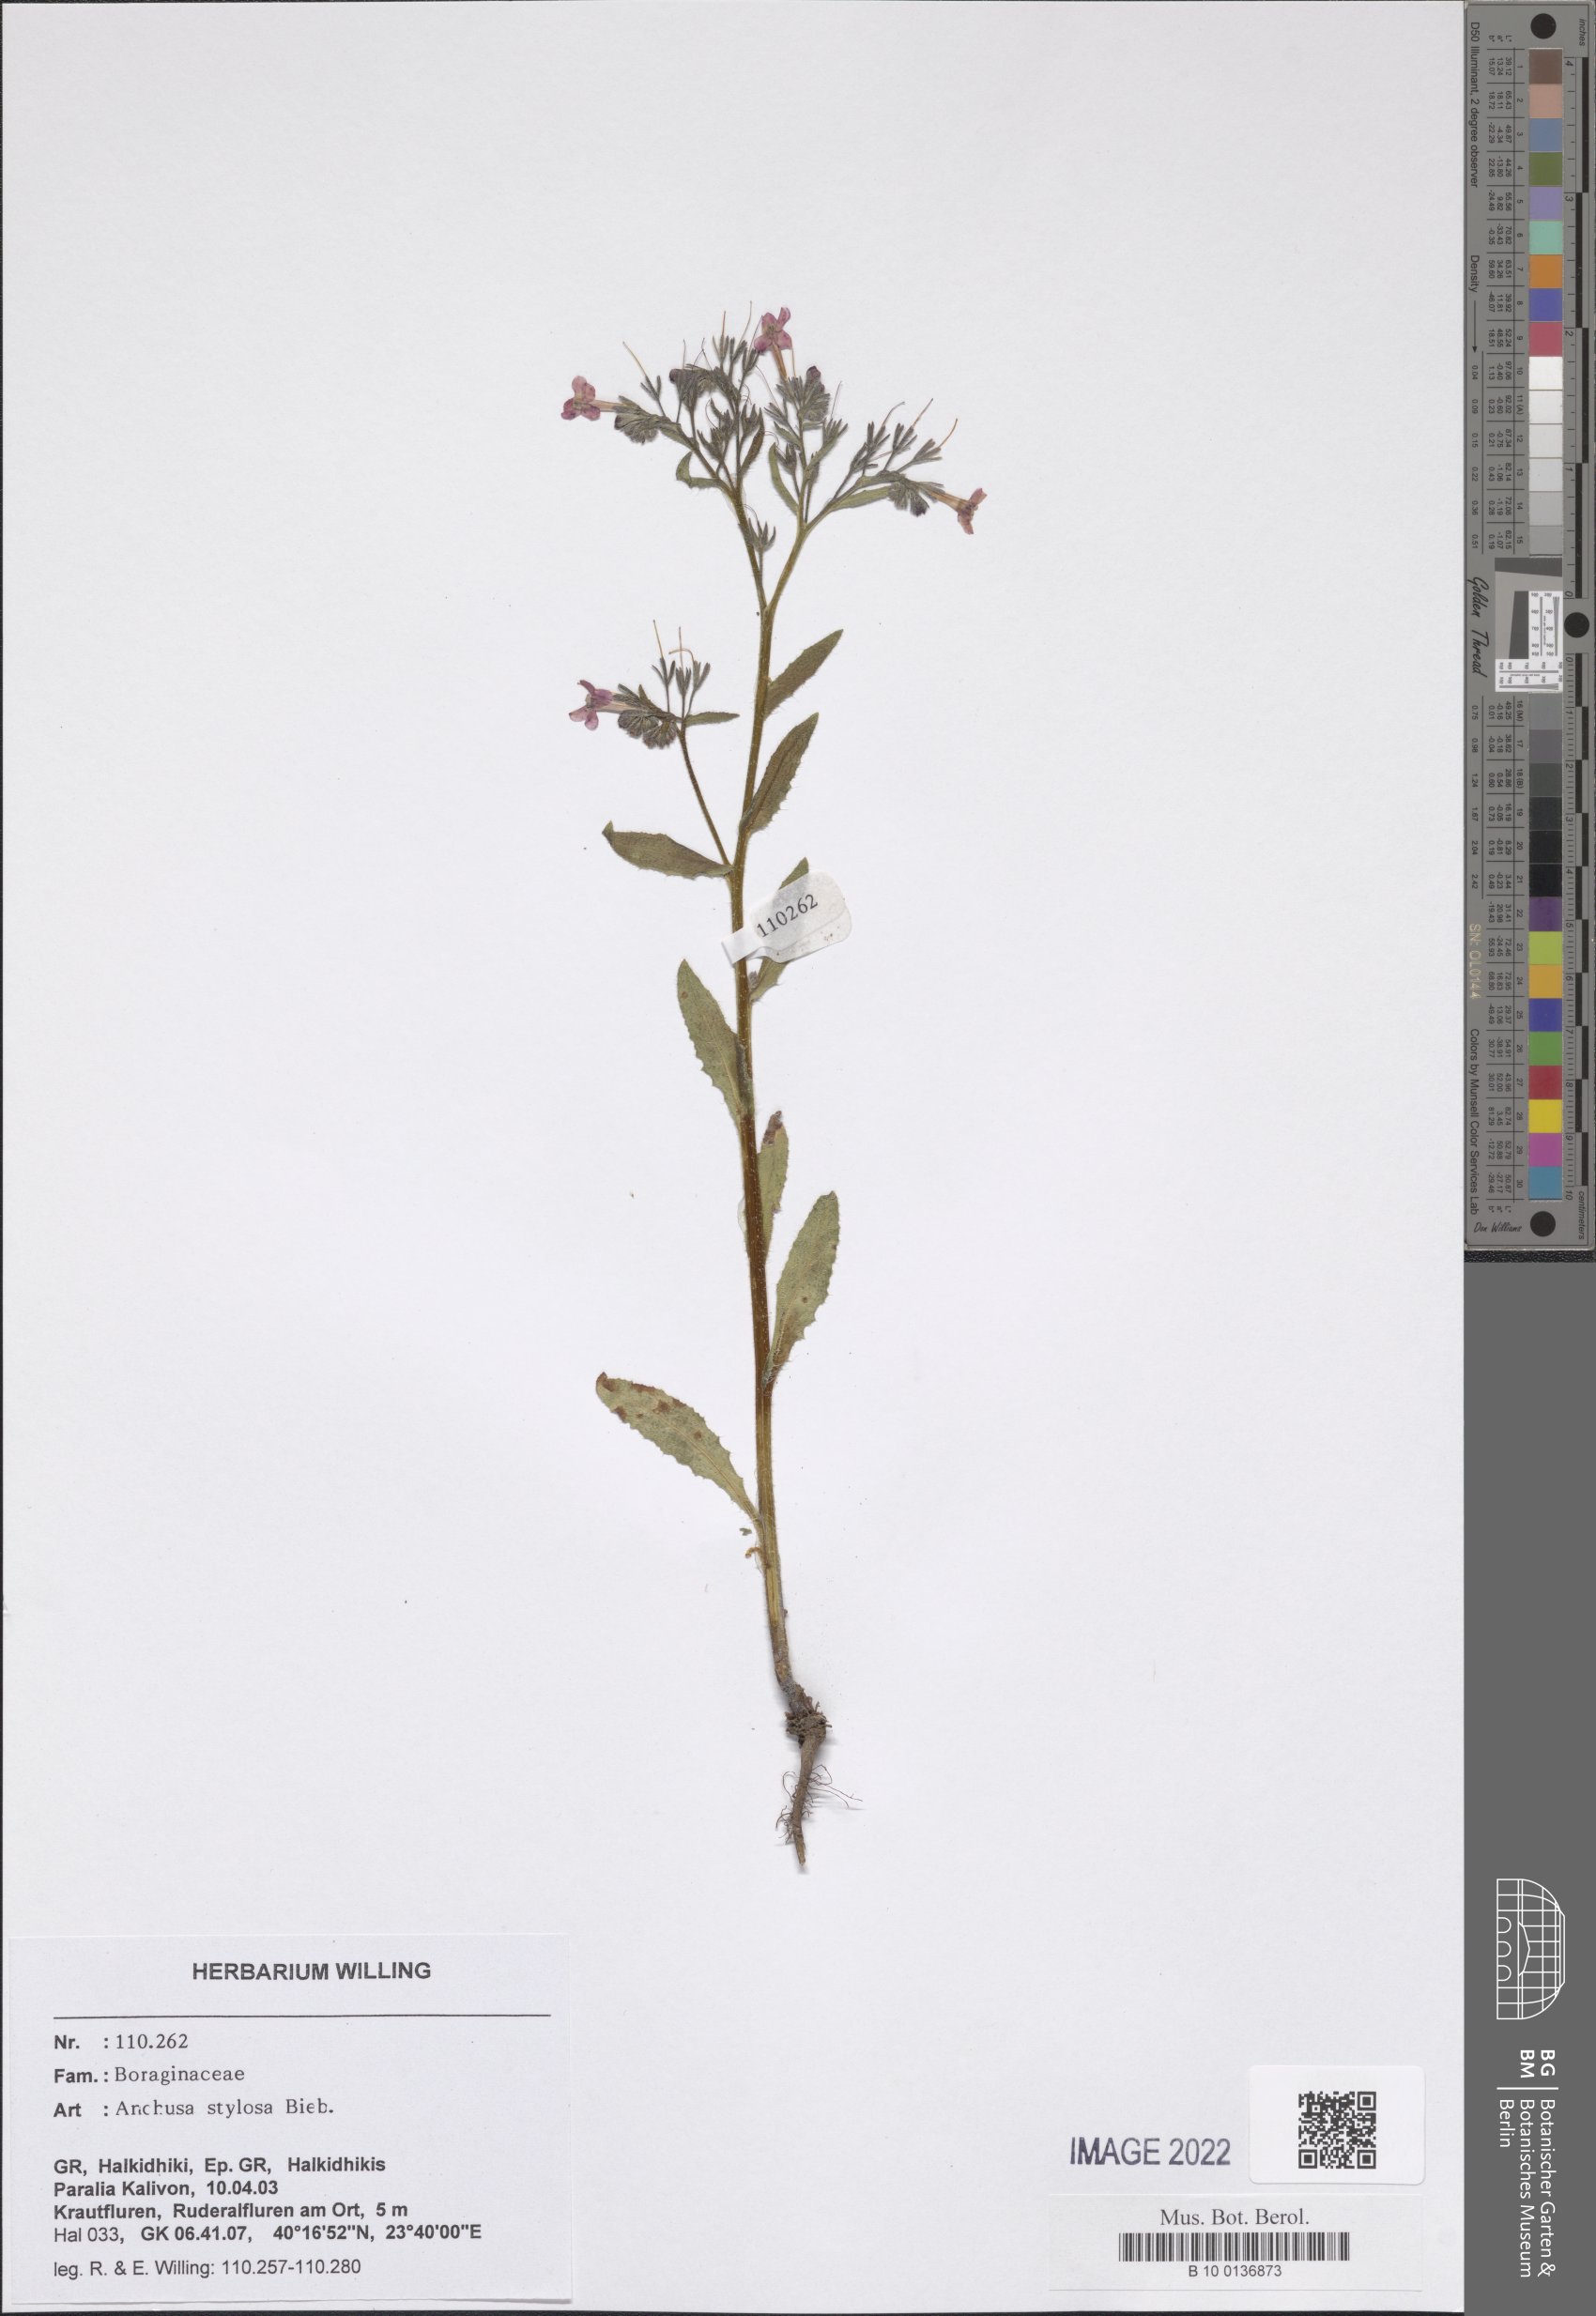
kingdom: Plantae
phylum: Tracheophyta
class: Magnoliopsida
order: Boraginales
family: Boraginaceae
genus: Anchusa
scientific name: Anchusa stylosa
